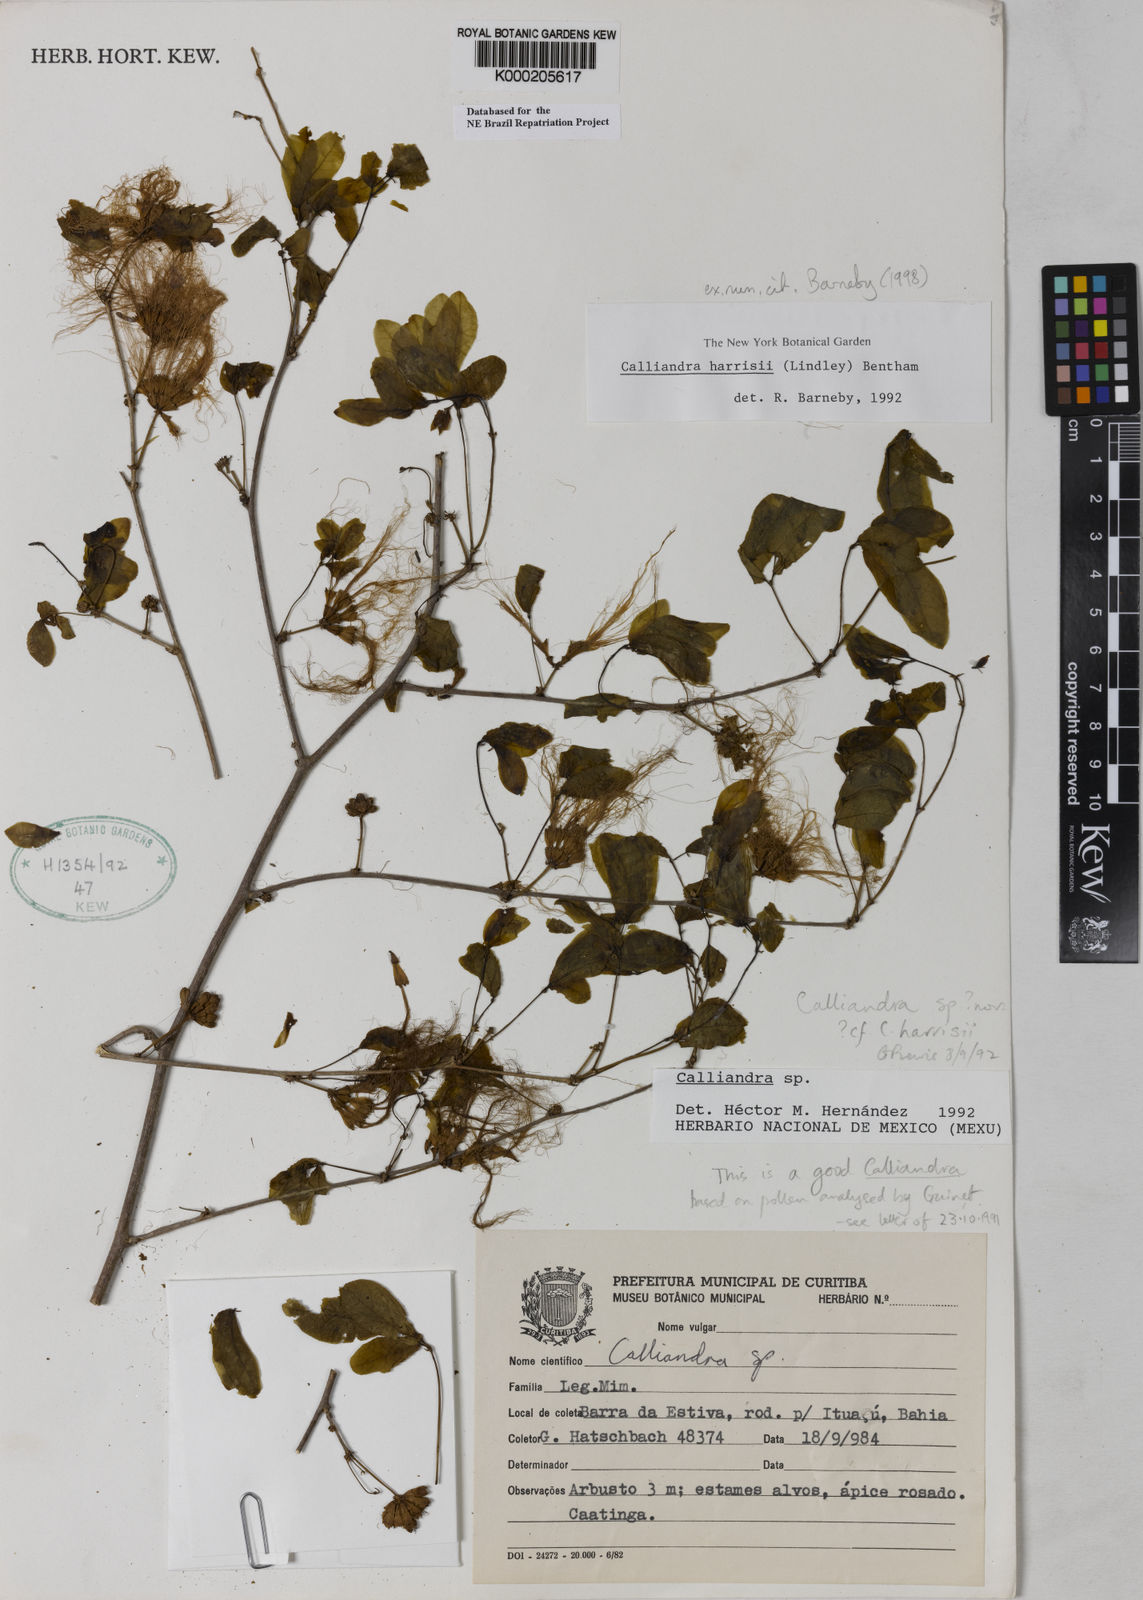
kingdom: Plantae
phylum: Tracheophyta
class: Magnoliopsida
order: Fabales
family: Fabaceae
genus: Calliandra
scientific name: Calliandra harrisii
